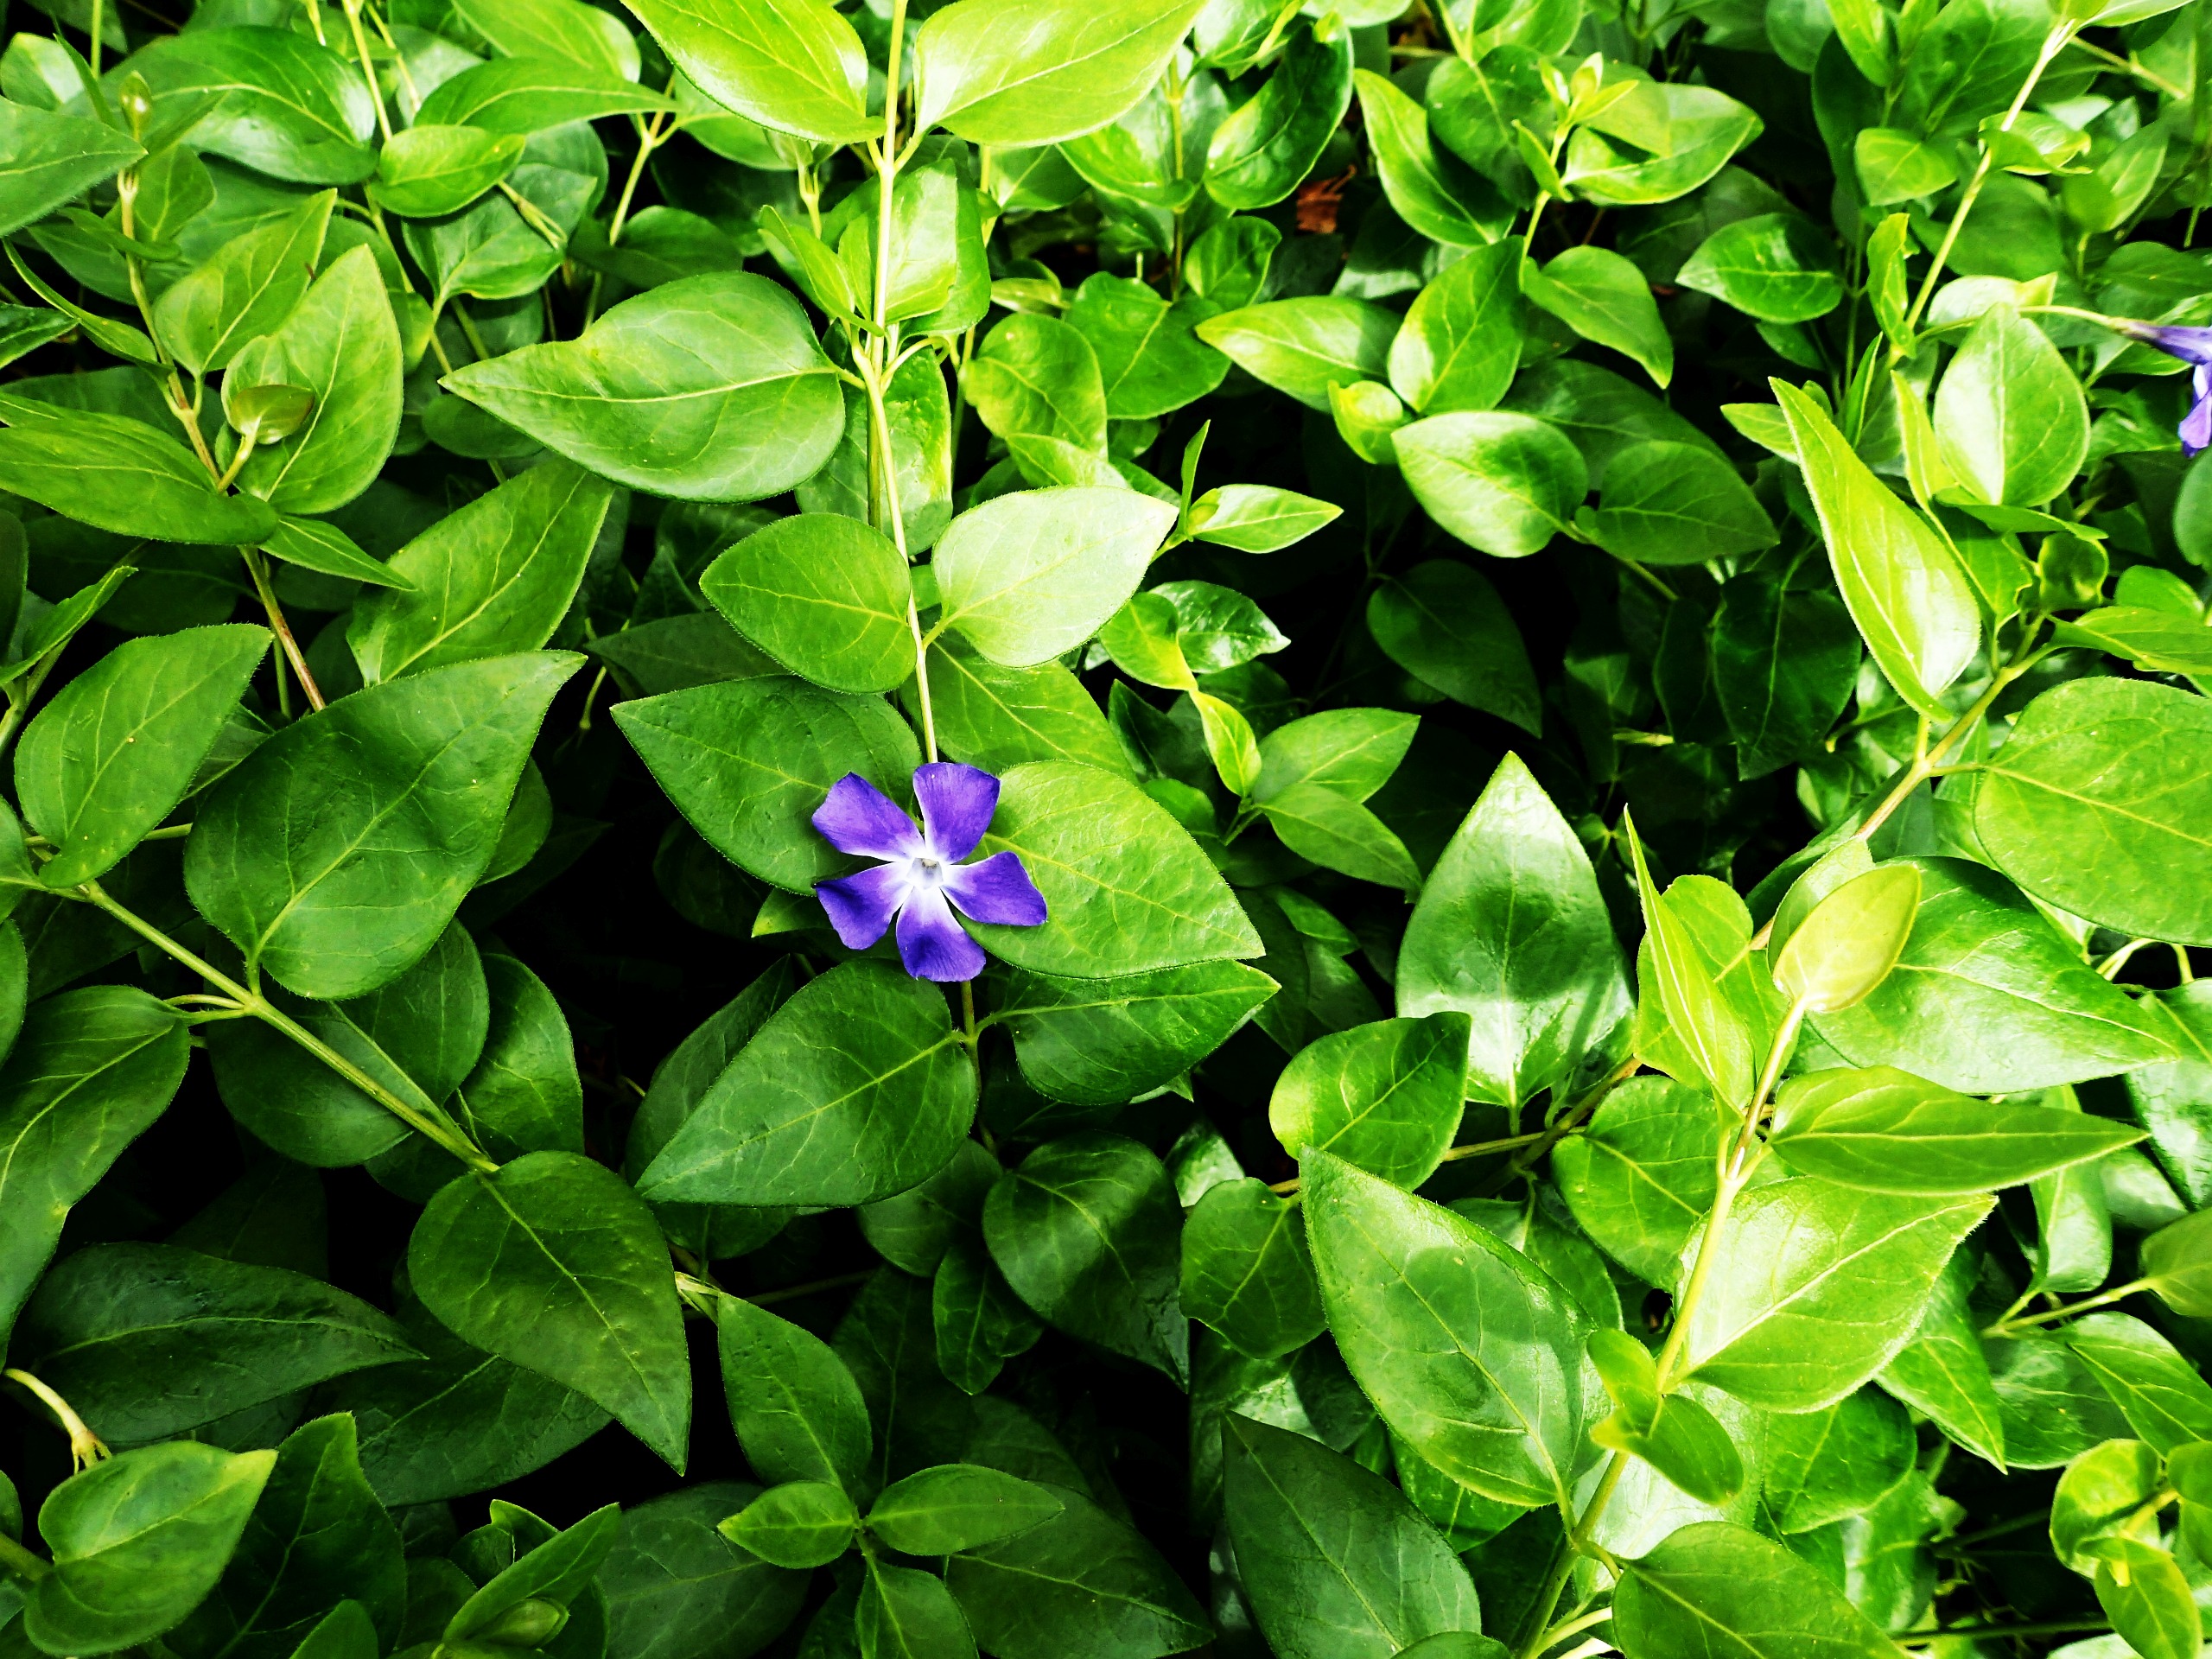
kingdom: Plantae
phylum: Tracheophyta
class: Magnoliopsida
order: Gentianales
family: Apocynaceae
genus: Vinca
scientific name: Vinca major
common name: Stor singrøn
